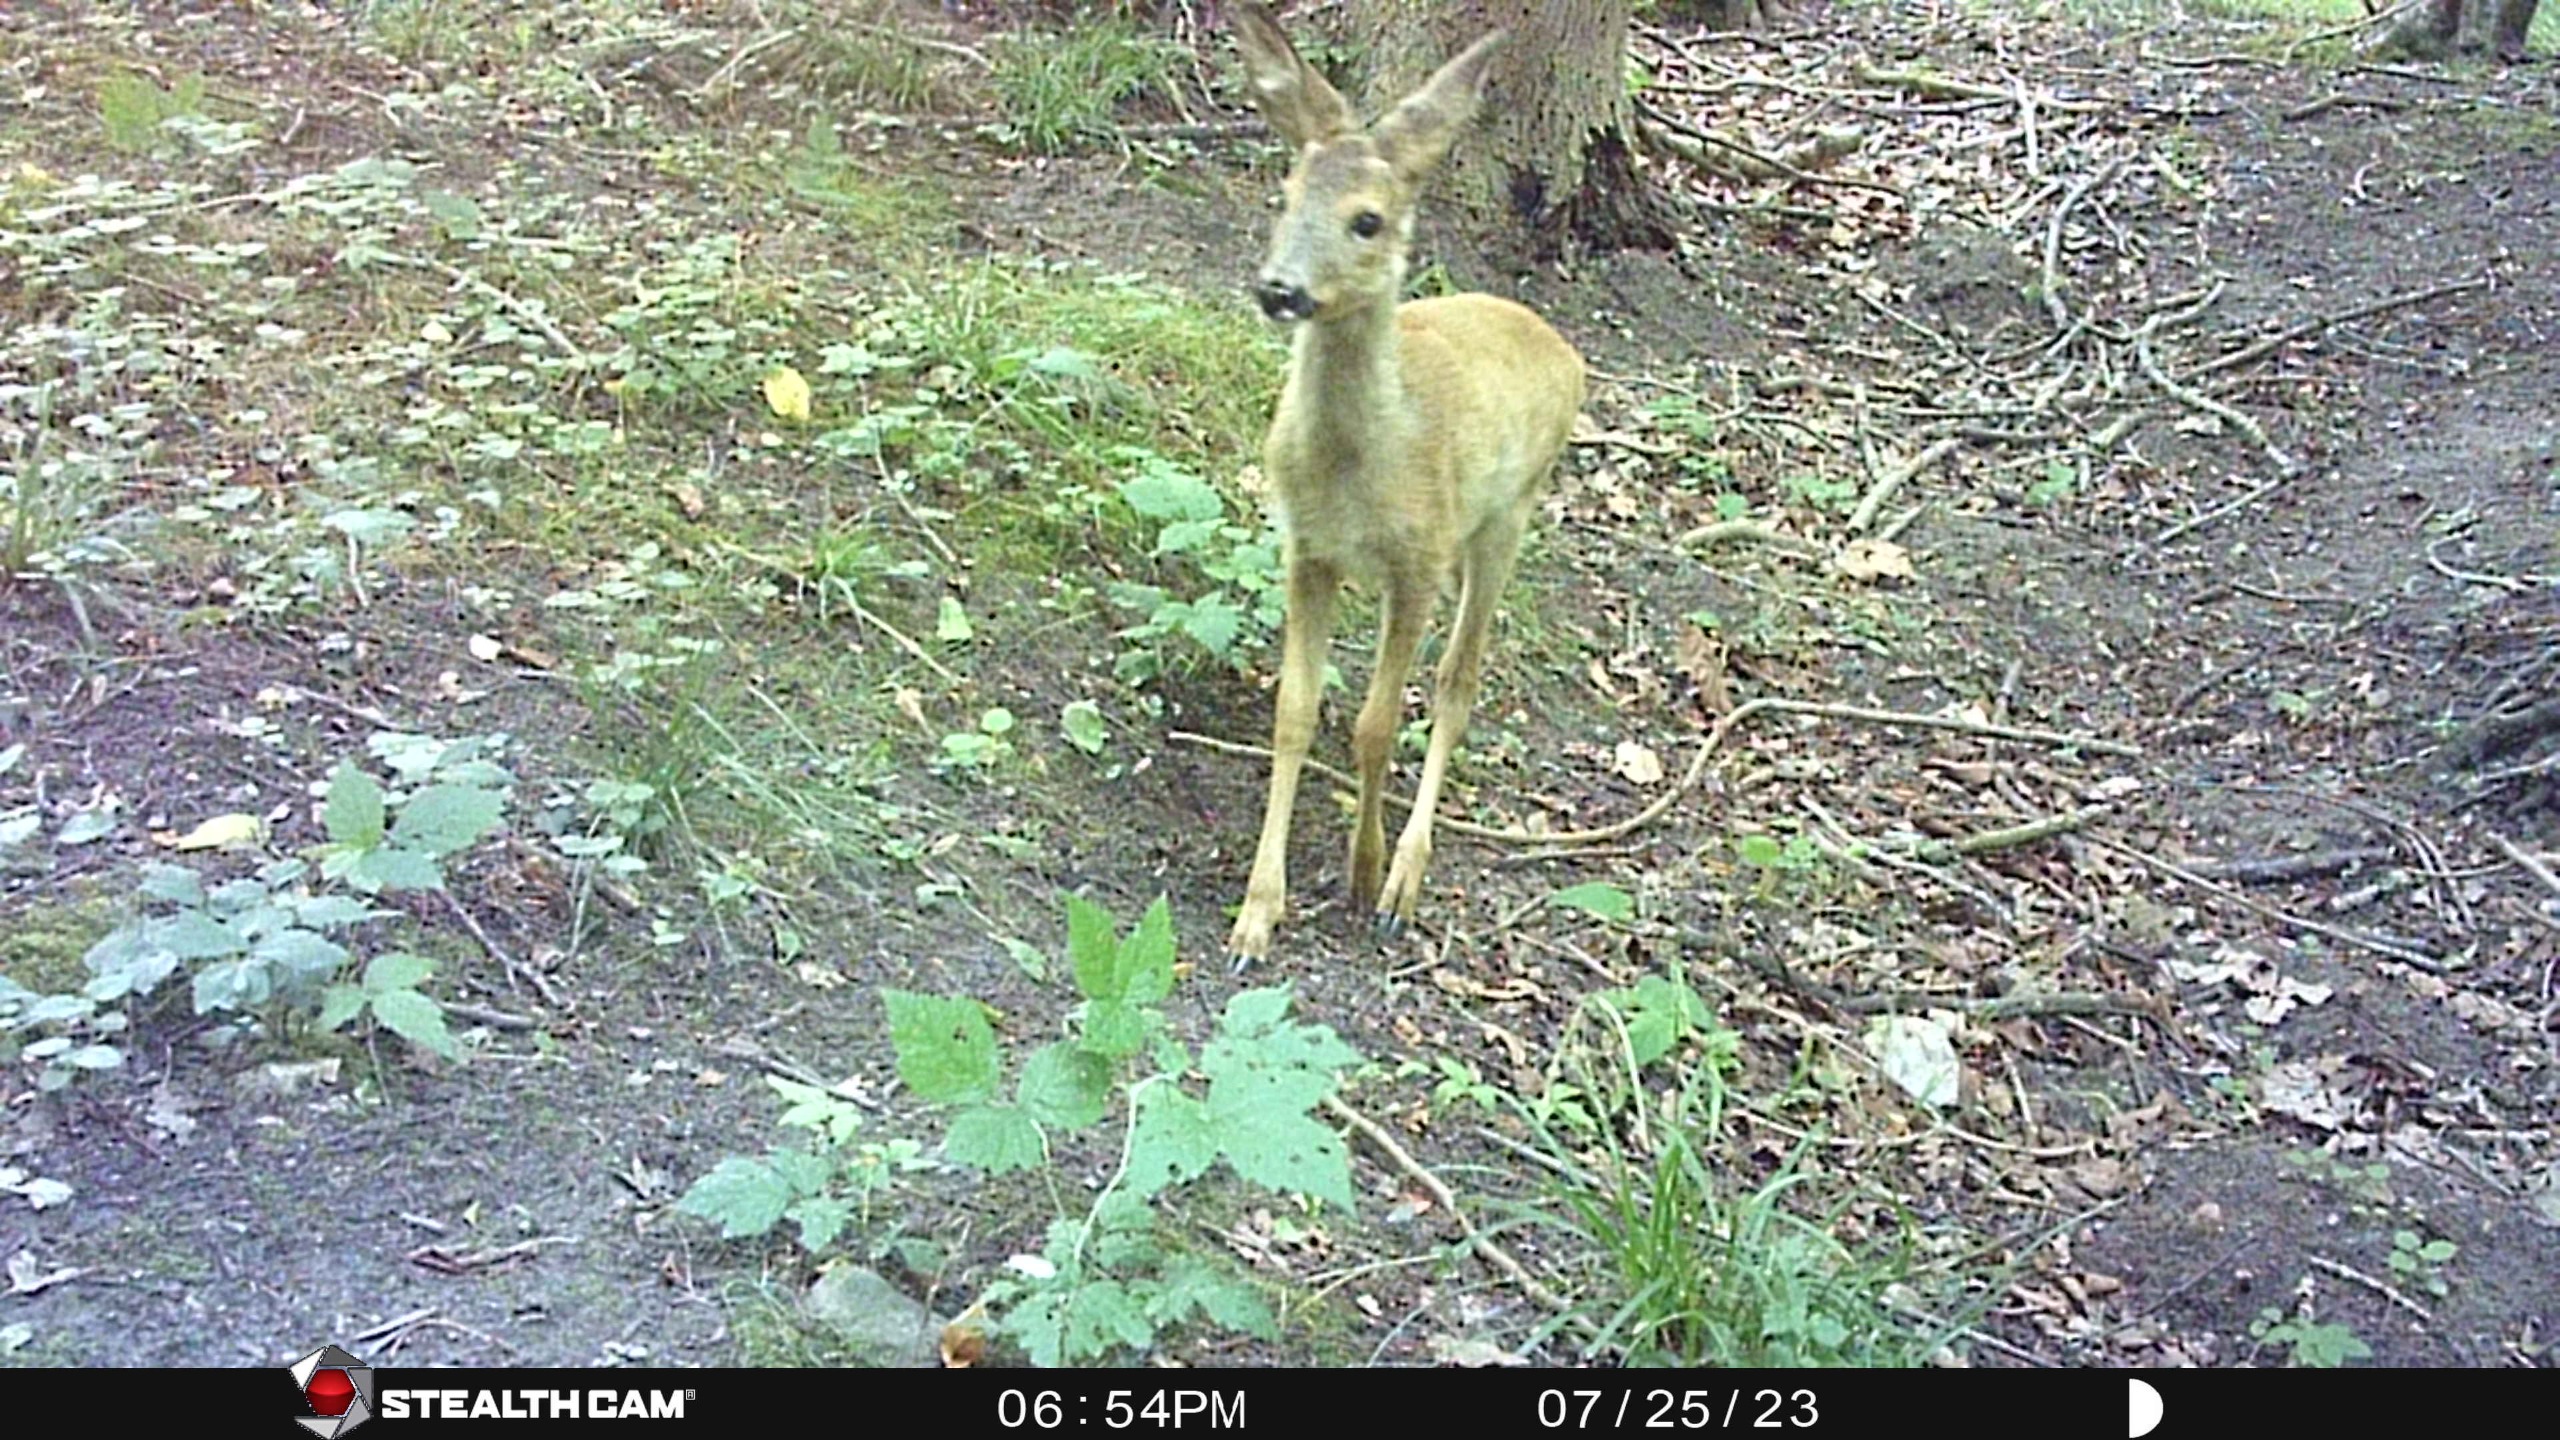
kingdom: Animalia
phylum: Chordata
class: Mammalia
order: Artiodactyla
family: Cervidae
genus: Capreolus
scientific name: Capreolus capreolus
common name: Rådyr
